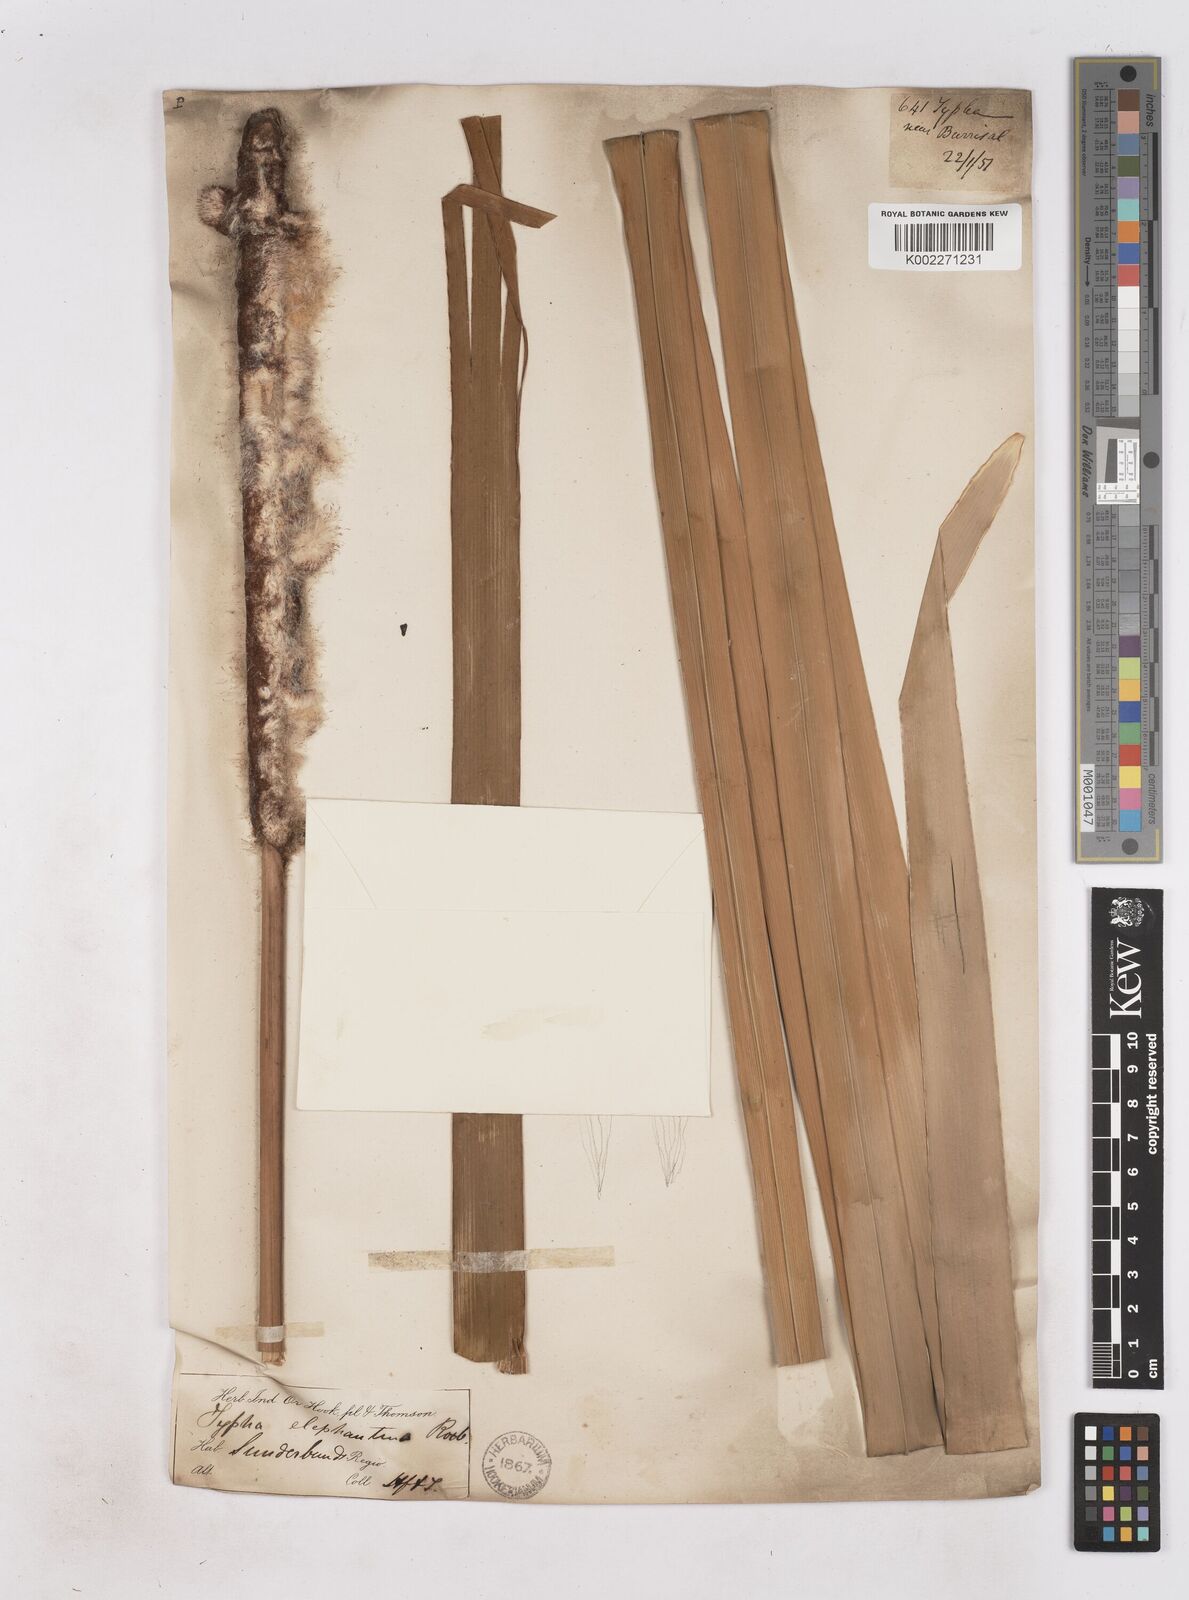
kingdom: Plantae
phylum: Tracheophyta
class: Liliopsida
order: Poales
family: Typhaceae
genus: Typha
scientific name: Typha elephantina
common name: Indian reed-grass
